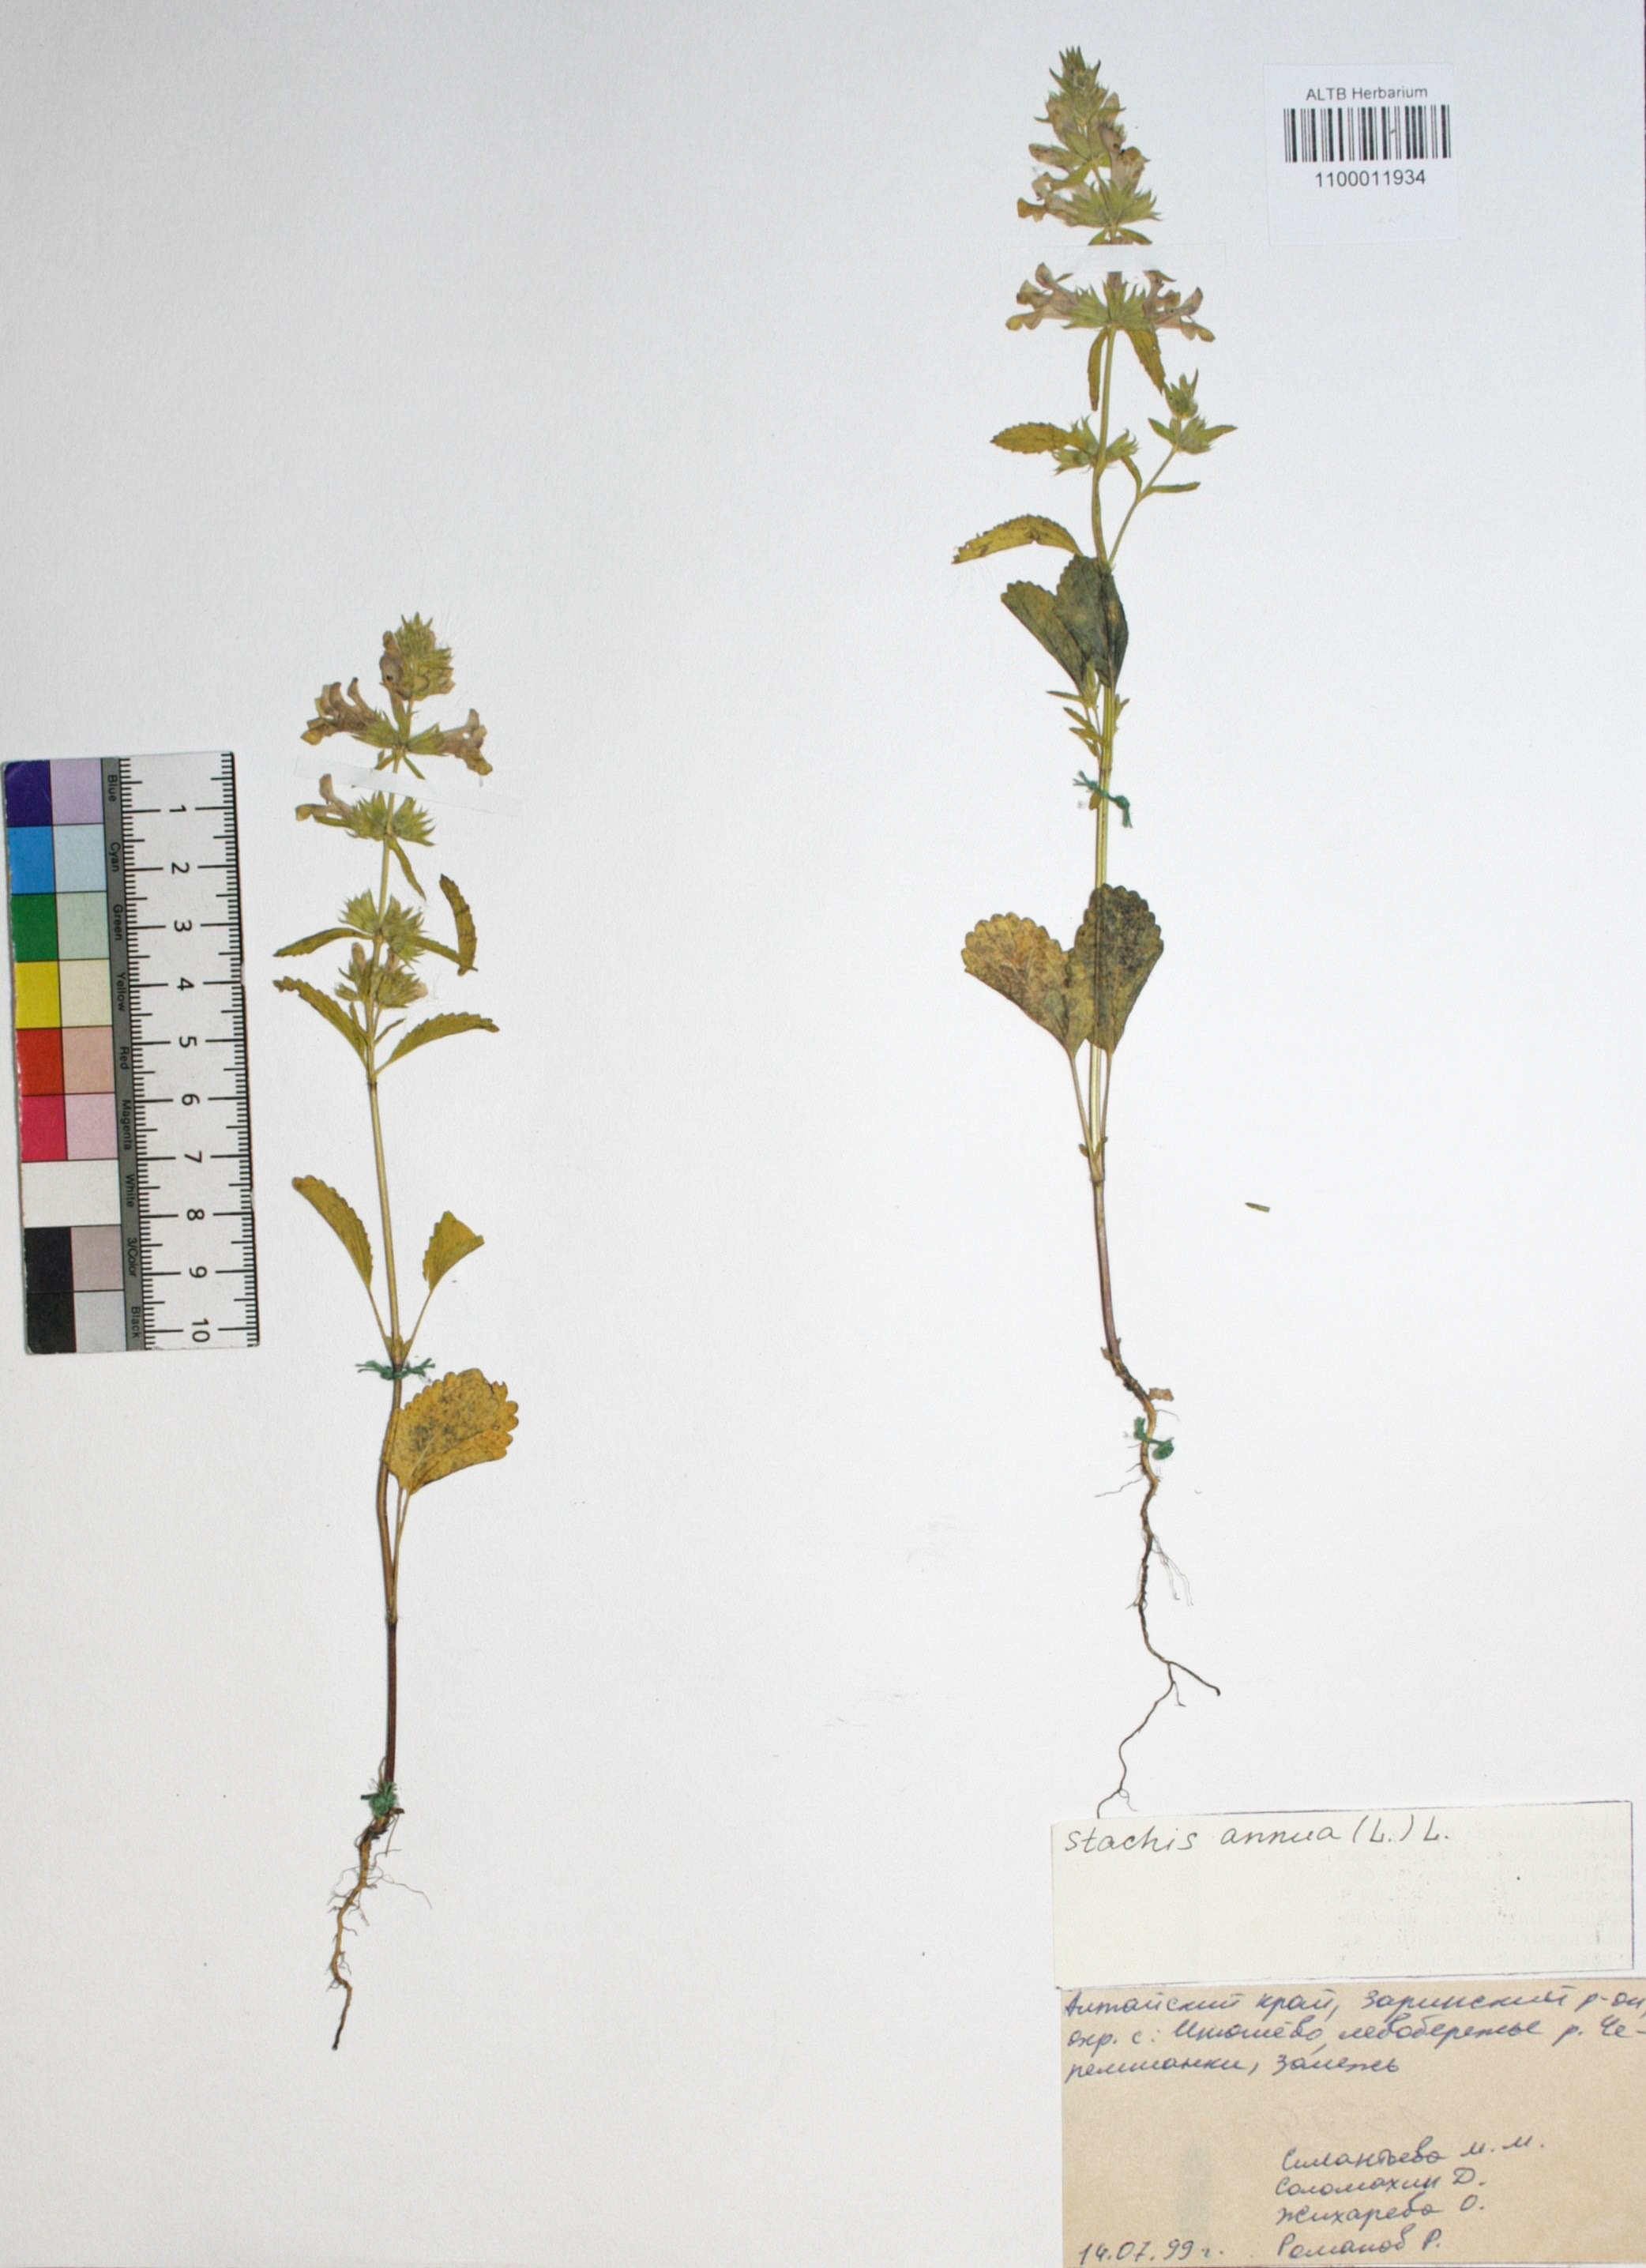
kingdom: Plantae
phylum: Tracheophyta
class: Magnoliopsida
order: Lamiales
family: Lamiaceae
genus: Stachys
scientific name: Stachys annua
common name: Annual yellow-woundwort
